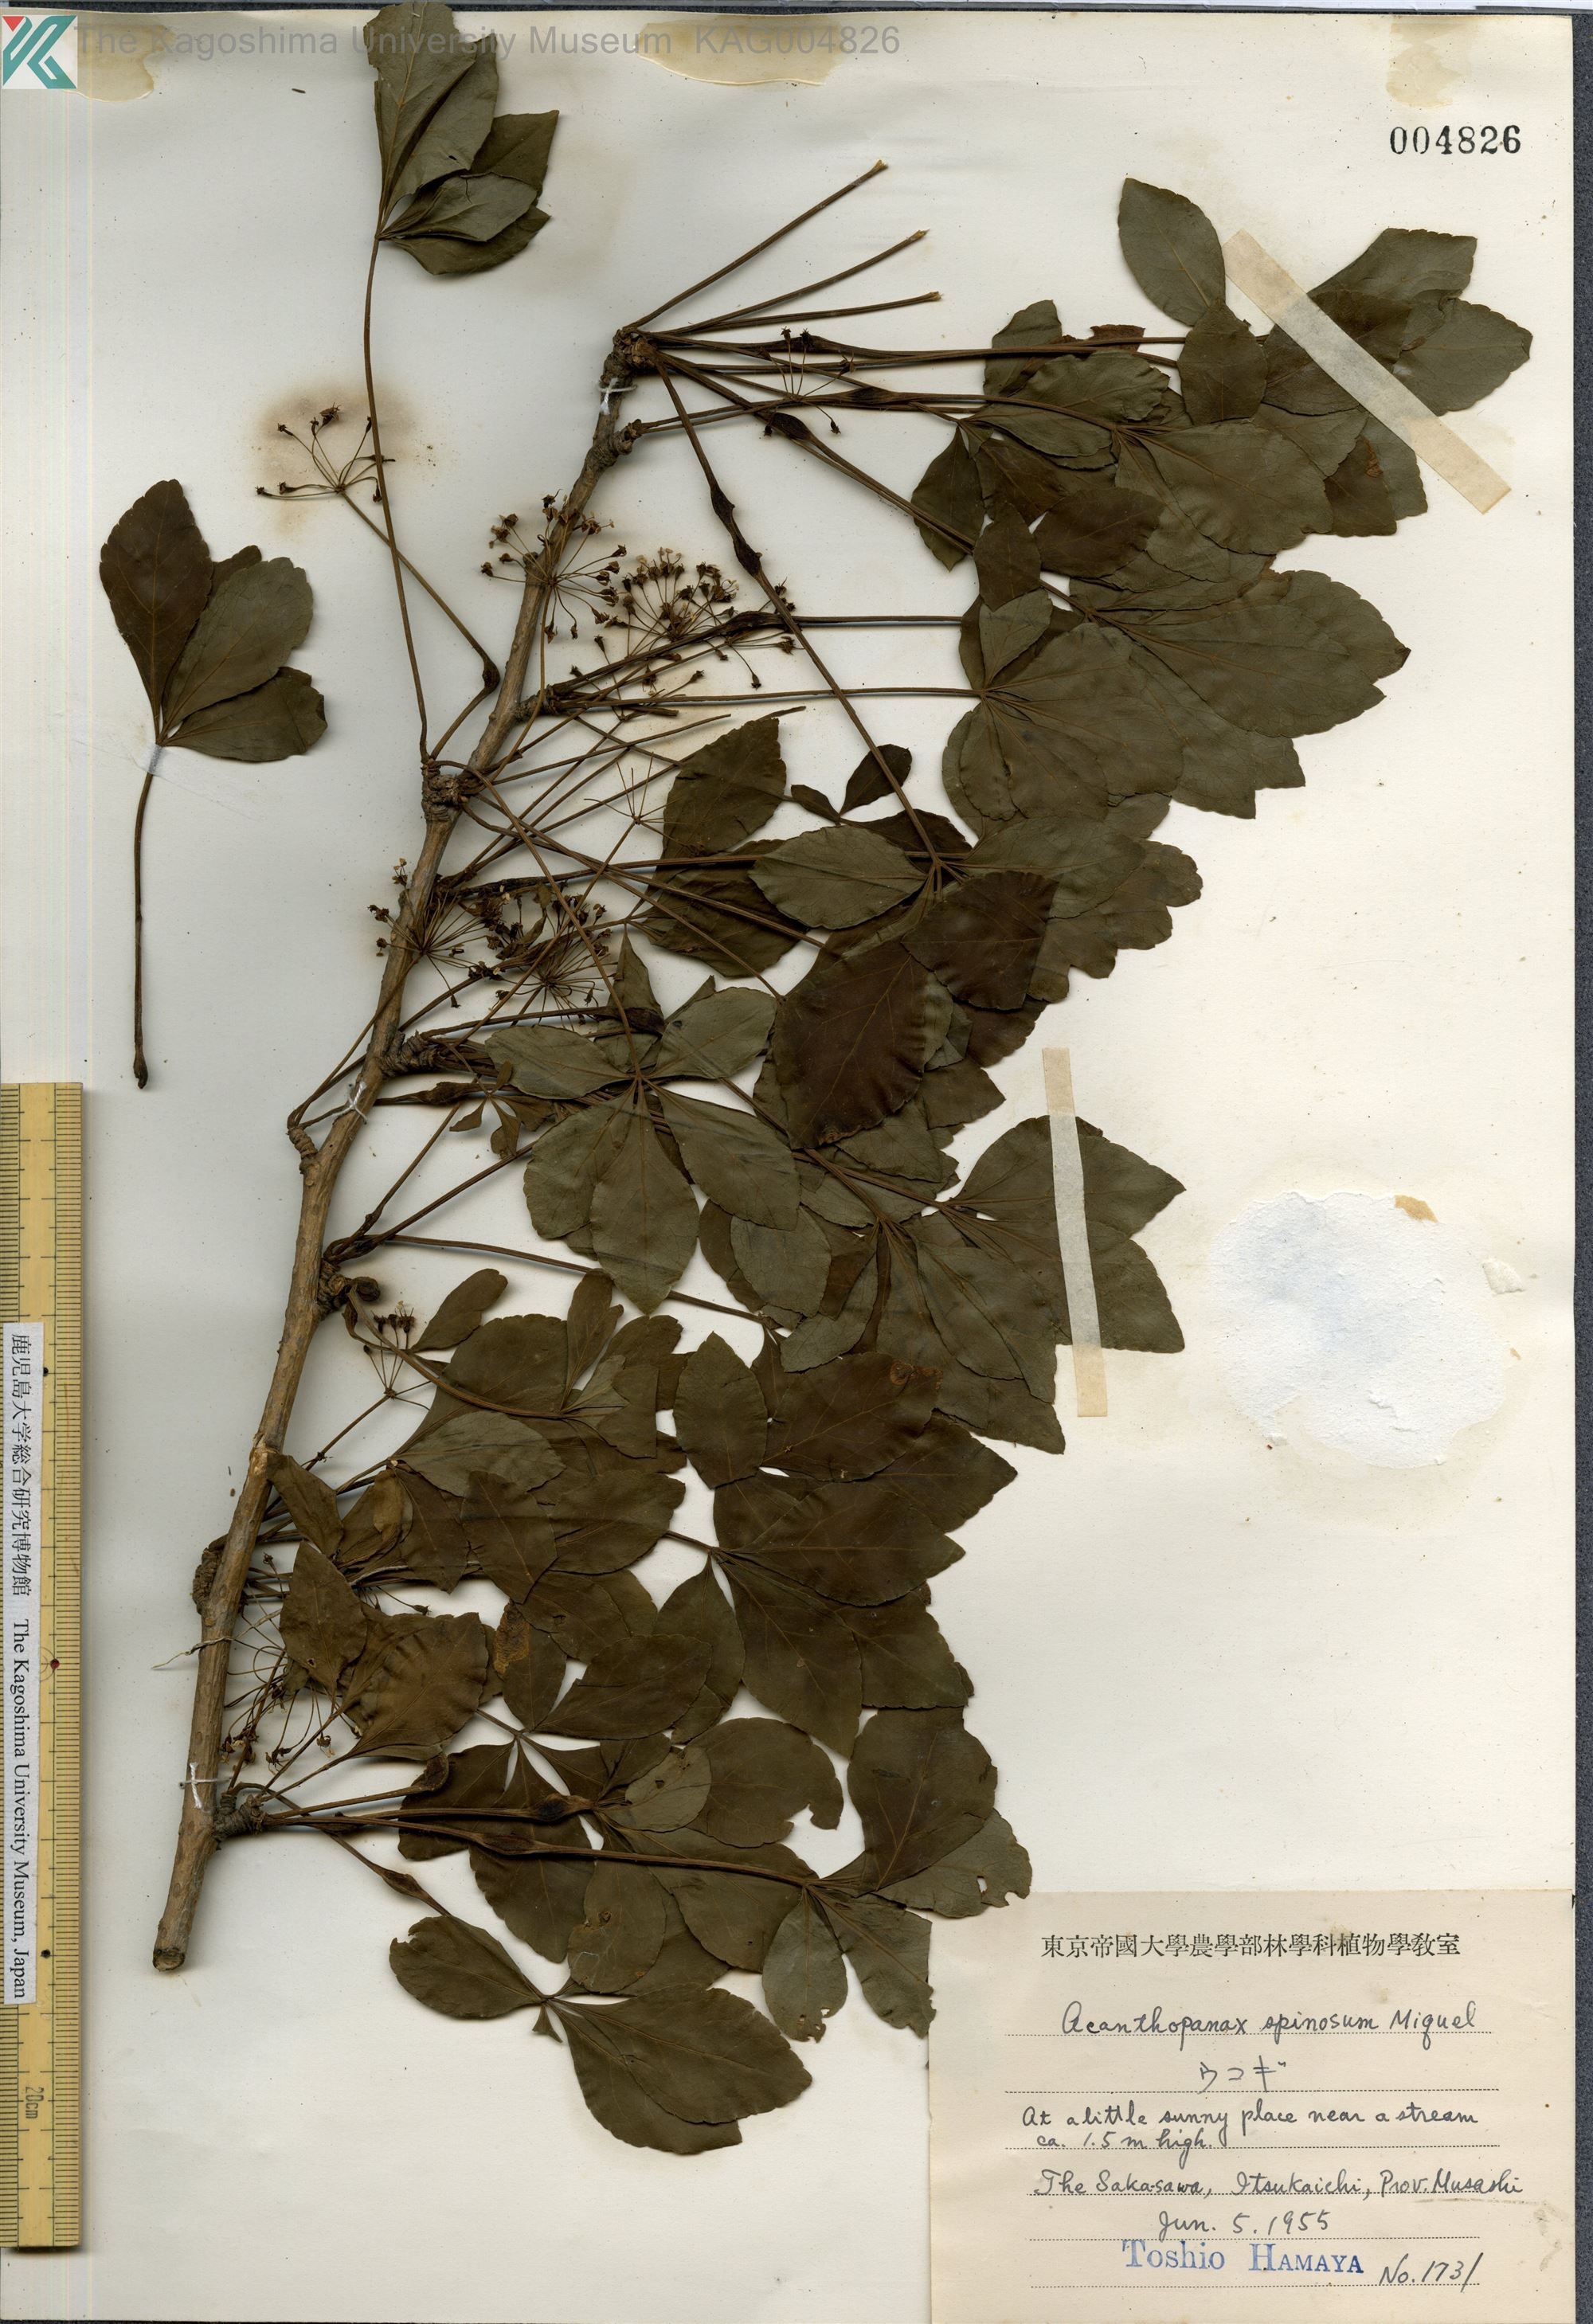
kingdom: Plantae
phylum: Tracheophyta
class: Magnoliopsida
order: Apiales
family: Araliaceae
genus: Eleutherococcus
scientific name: Eleutherococcus nodiflorus
